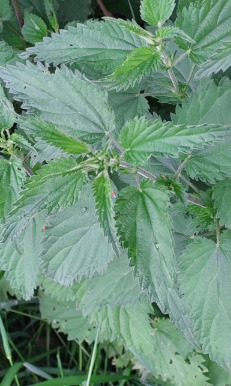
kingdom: Plantae
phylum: Tracheophyta
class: Magnoliopsida
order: Rosales
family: Urticaceae
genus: Urtica
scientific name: Urtica dioica
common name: Stor nælde
